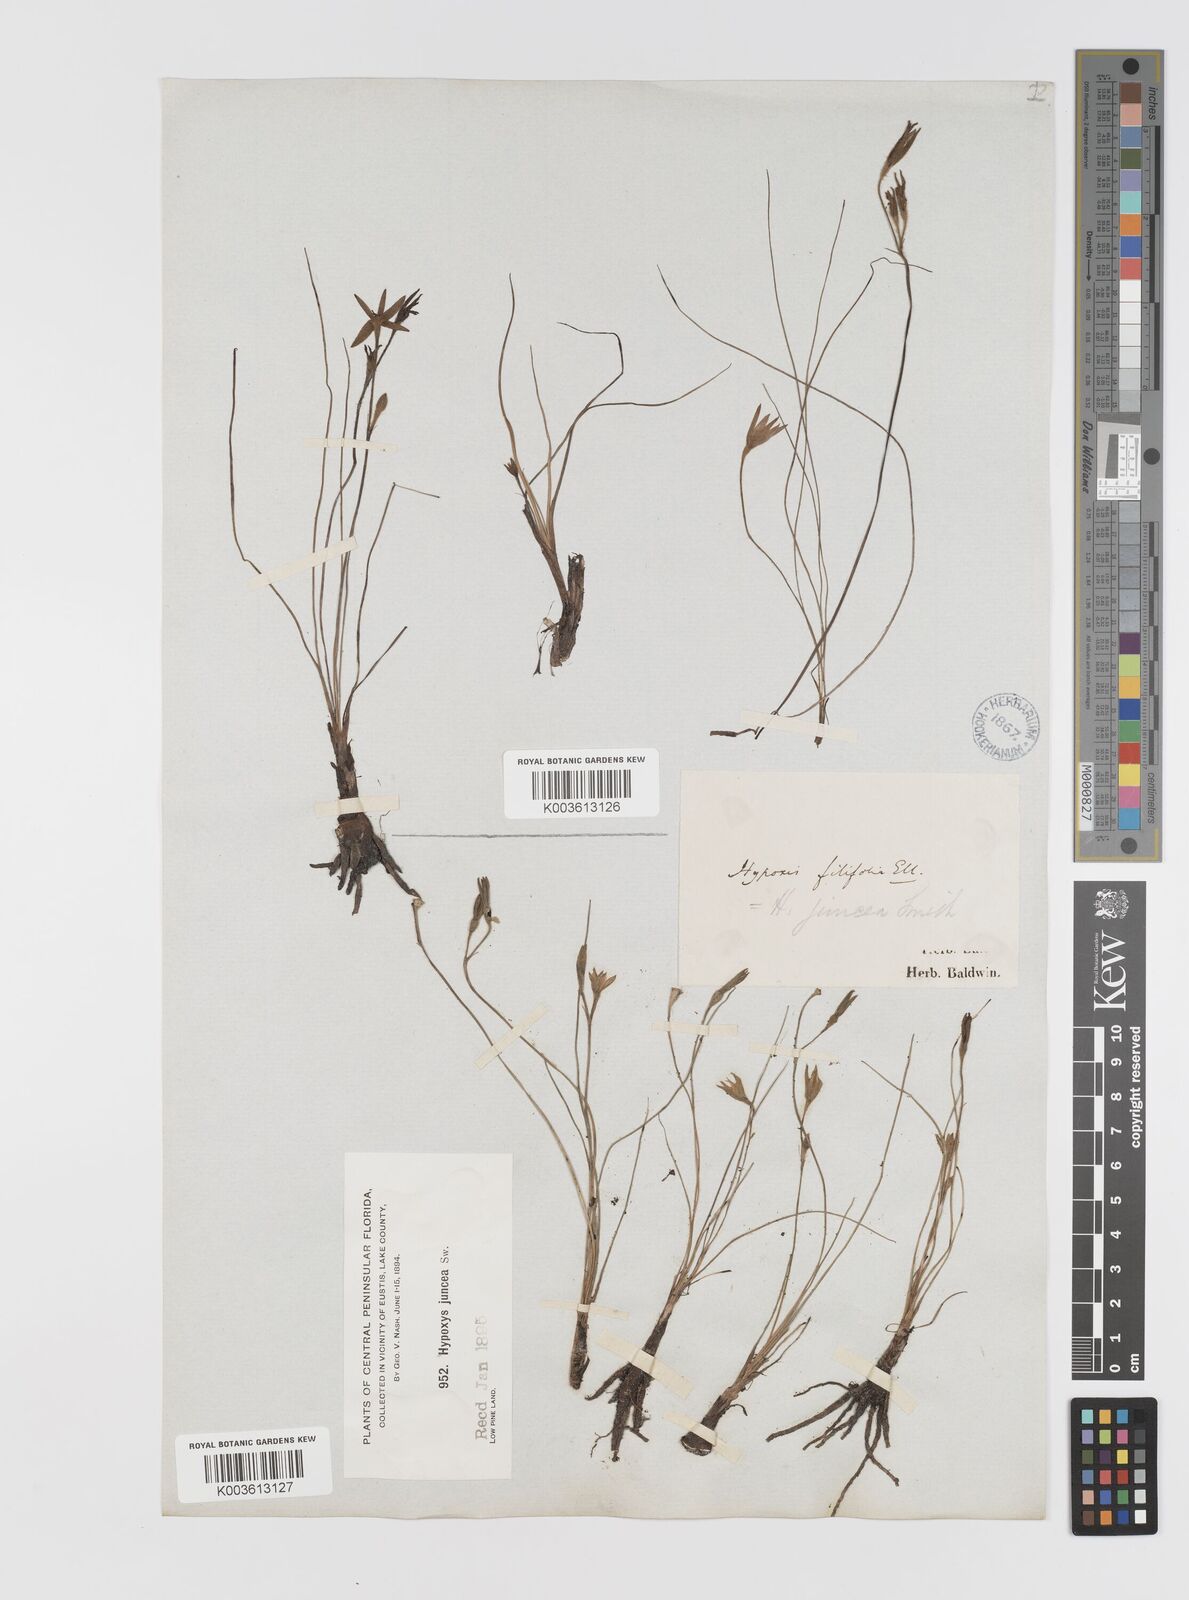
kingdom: Plantae
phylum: Tracheophyta
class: Liliopsida
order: Asparagales
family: Hypoxidaceae
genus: Hypoxis
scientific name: Hypoxis juncea
